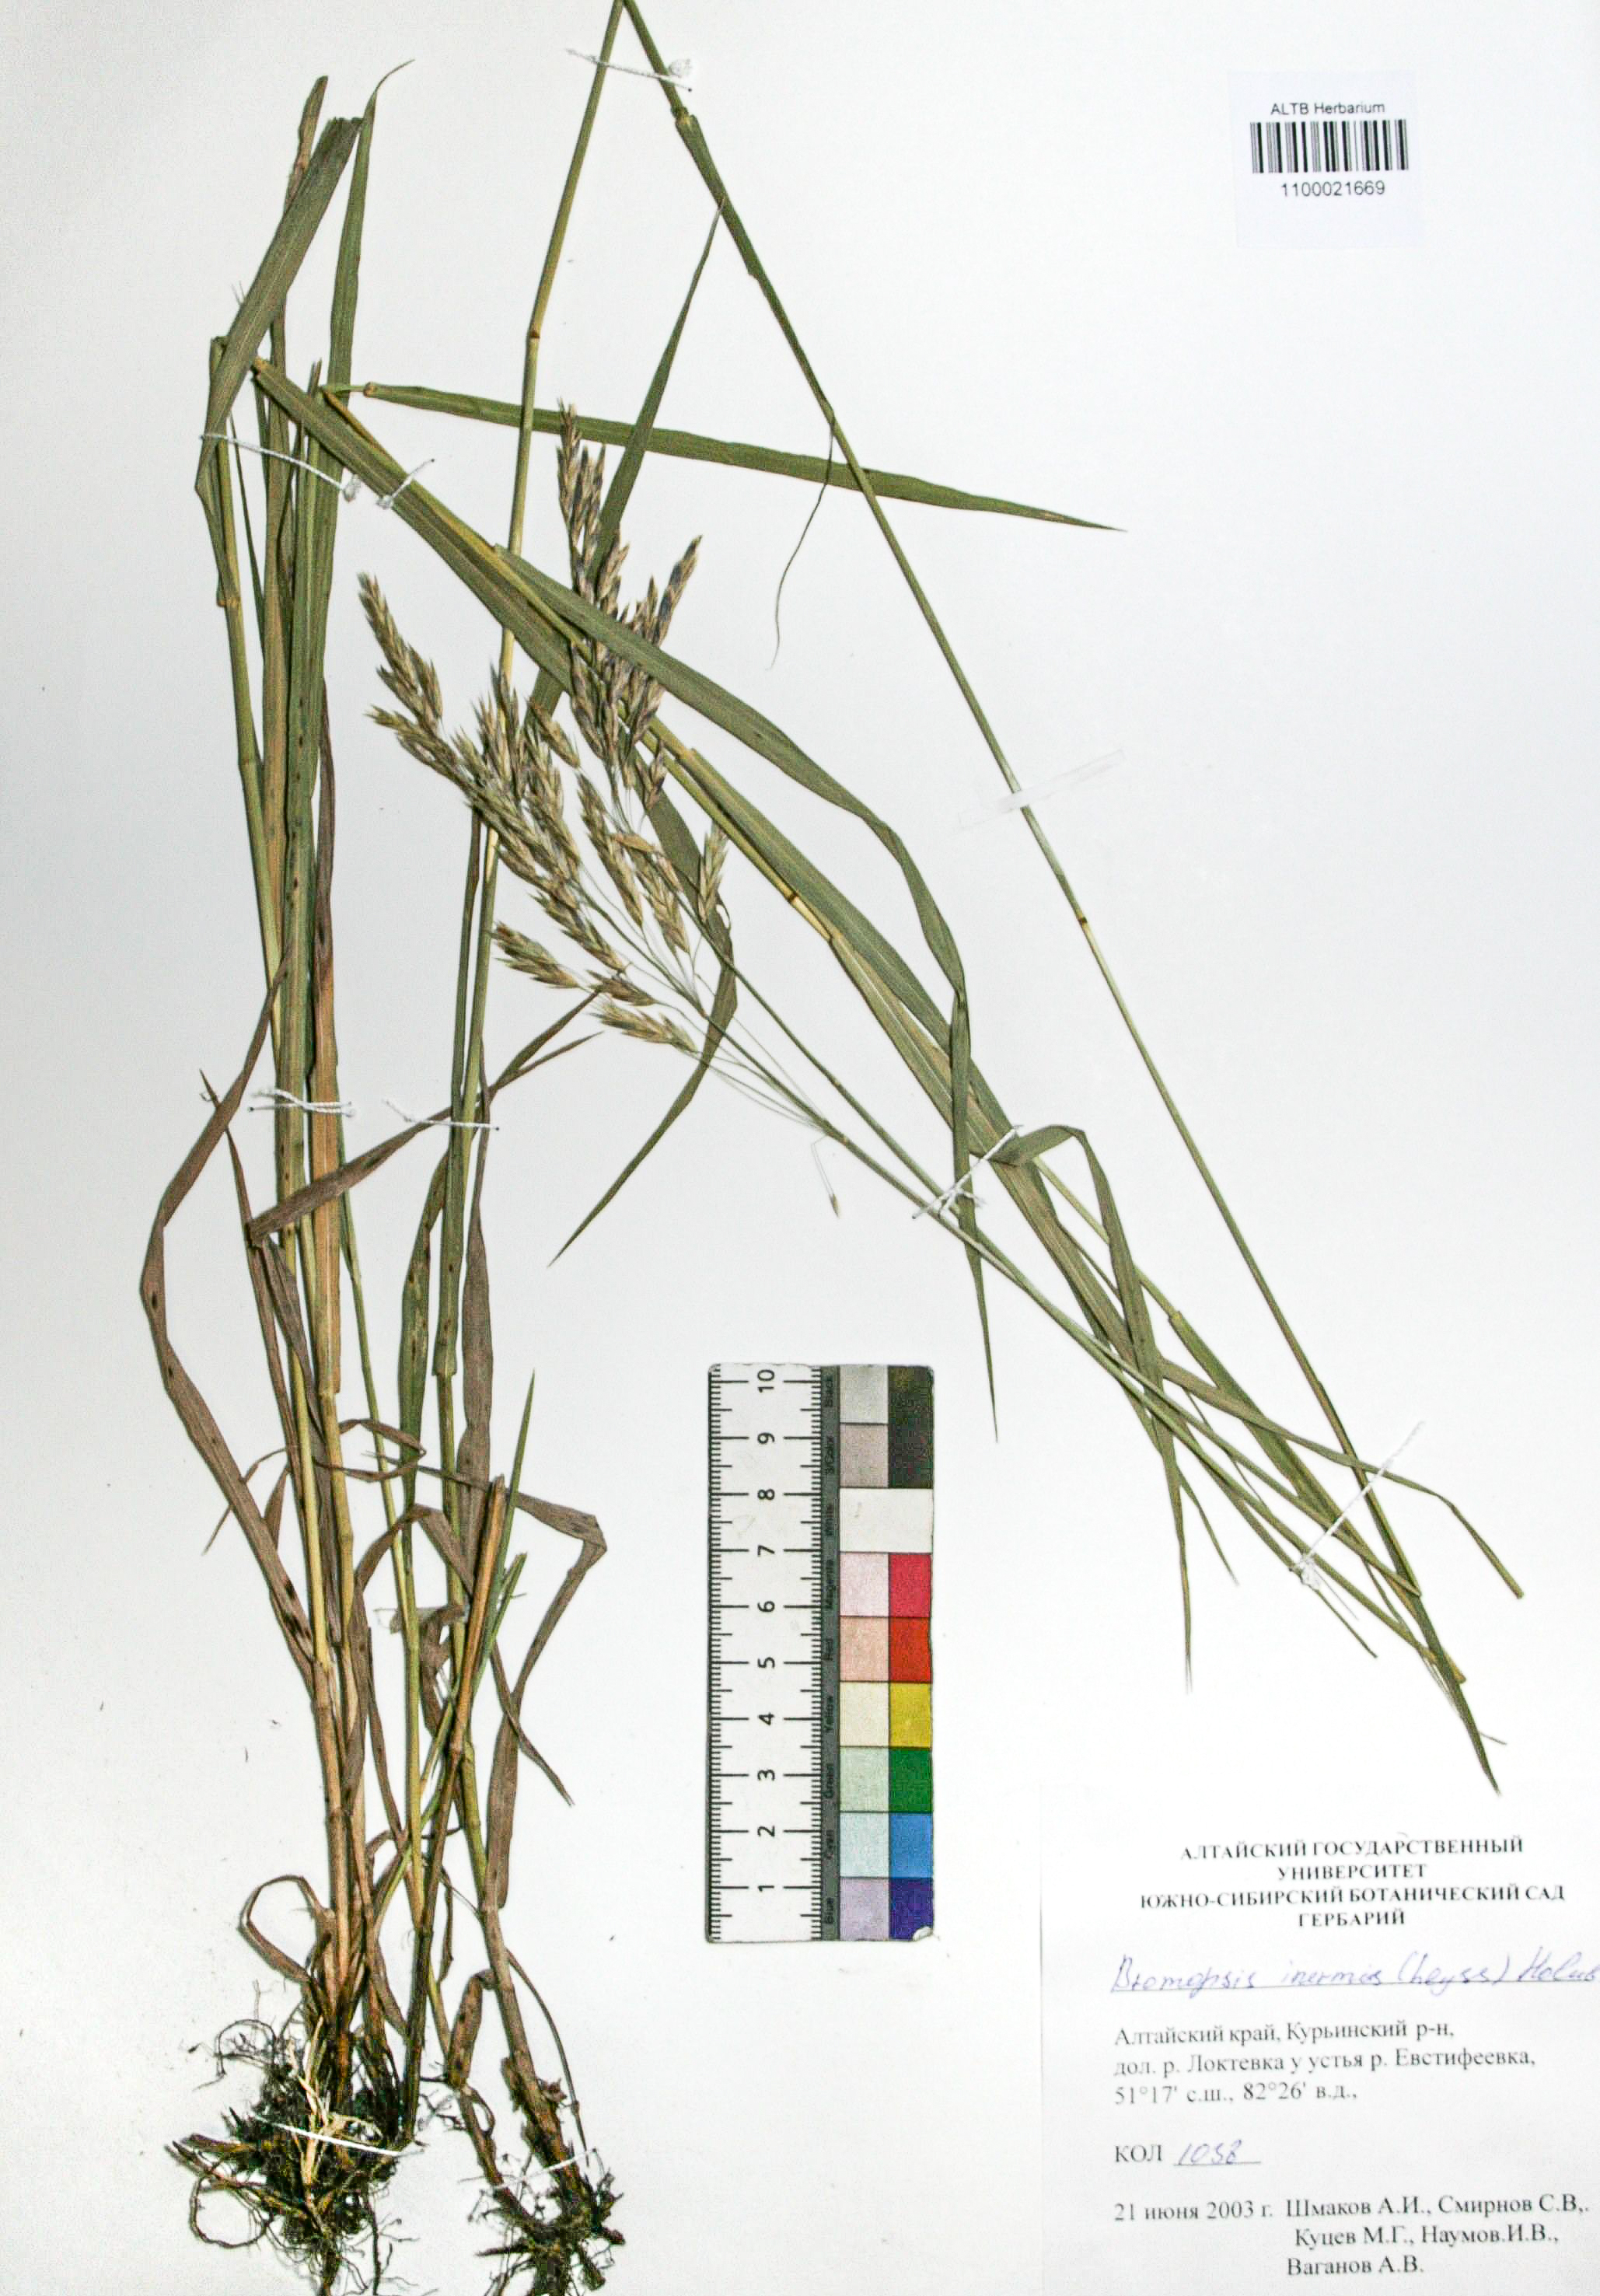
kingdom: Plantae
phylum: Tracheophyta
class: Liliopsida
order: Poales
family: Poaceae
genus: Bromus
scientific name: Bromus inermis
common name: Smooth brome
